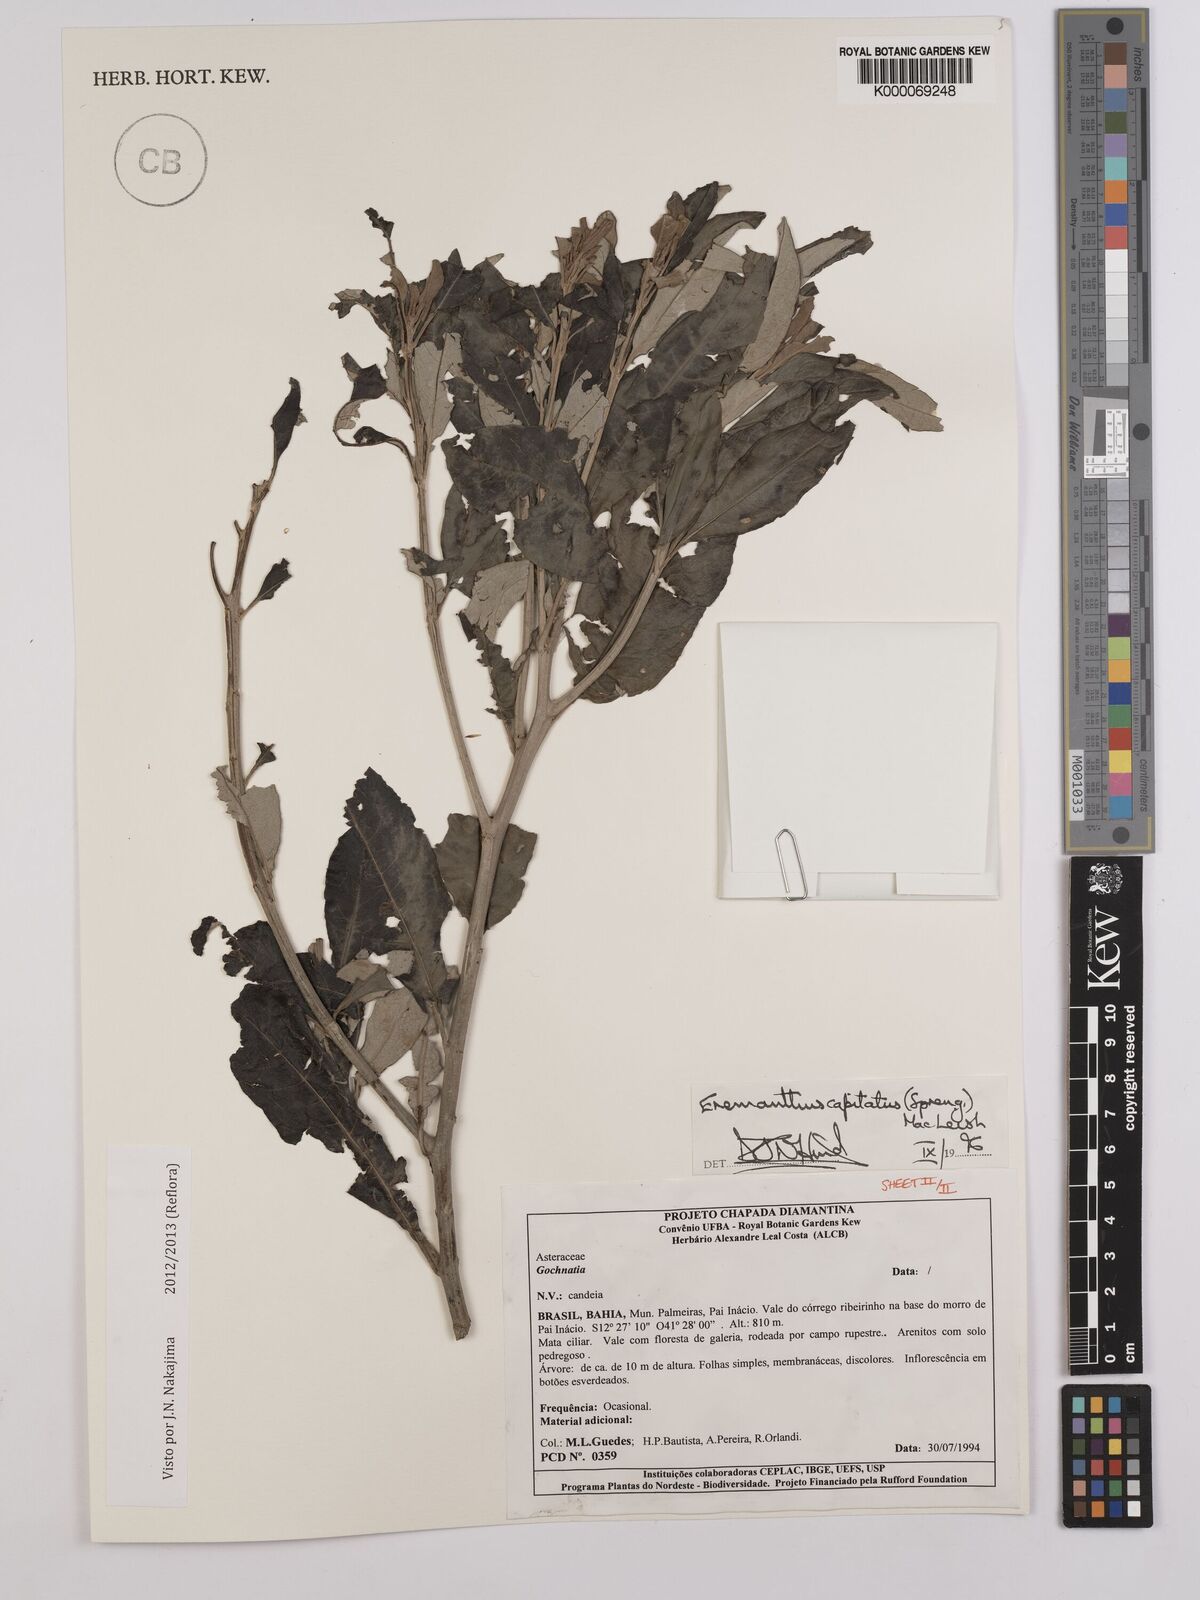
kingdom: Plantae
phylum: Tracheophyta
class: Magnoliopsida
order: Asterales
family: Asteraceae
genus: Eremanthus
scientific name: Eremanthus capitatus
